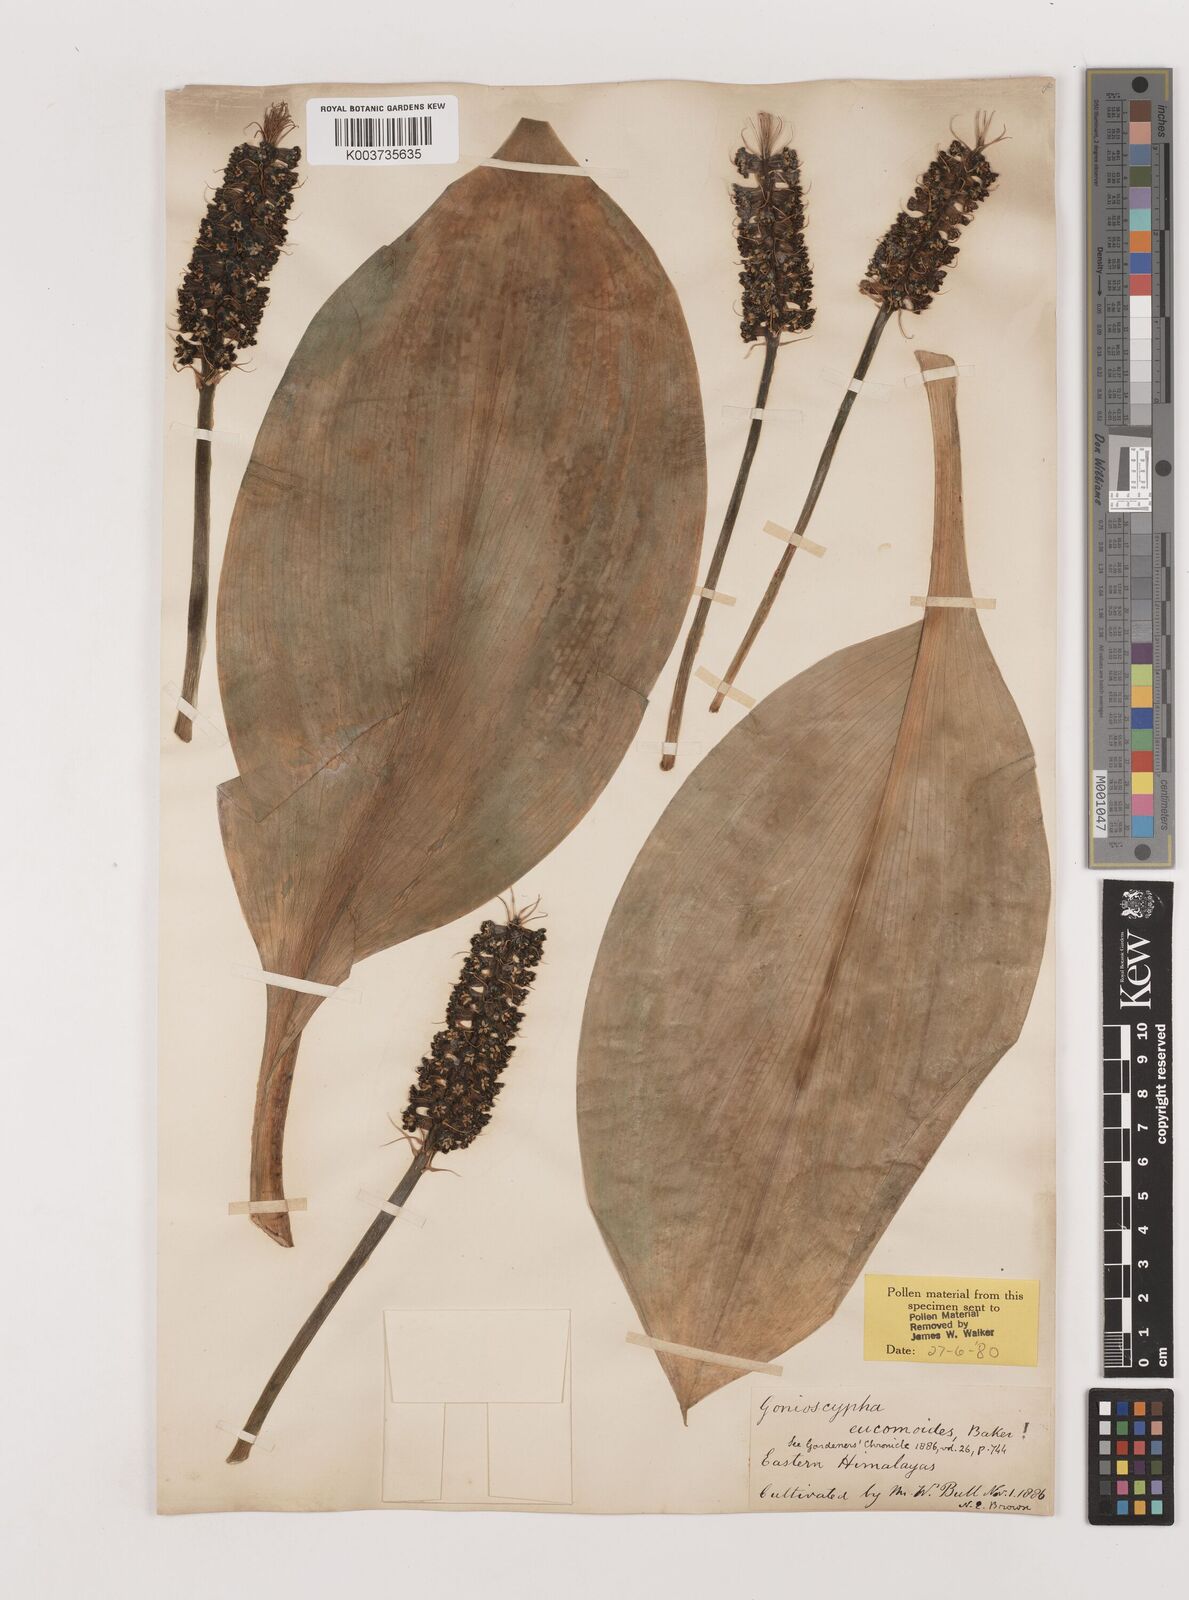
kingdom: Plantae
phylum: Tracheophyta
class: Liliopsida
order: Asparagales
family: Asparagaceae
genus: Rohdea
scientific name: Rohdea eucomoides
